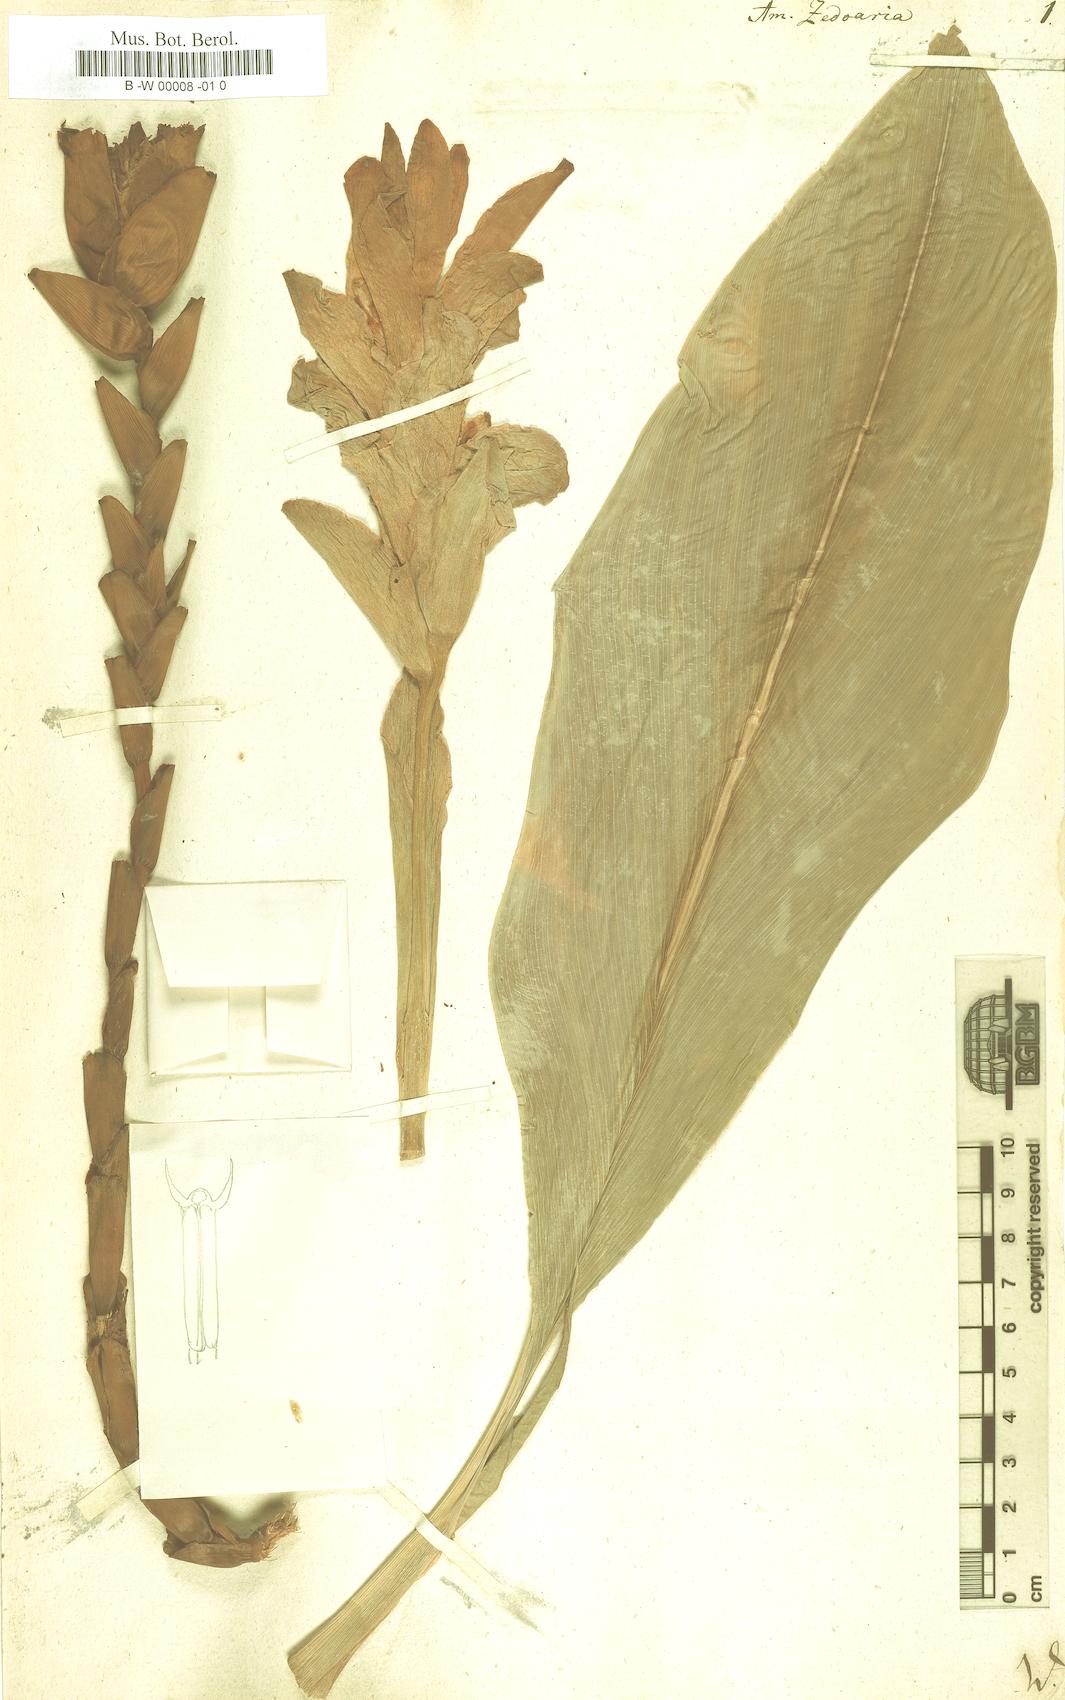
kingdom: Plantae
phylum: Tracheophyta
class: Liliopsida
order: Zingiberales
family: Zingiberaceae
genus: Curcuma
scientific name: Curcuma zedoaria
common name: Zedoary
